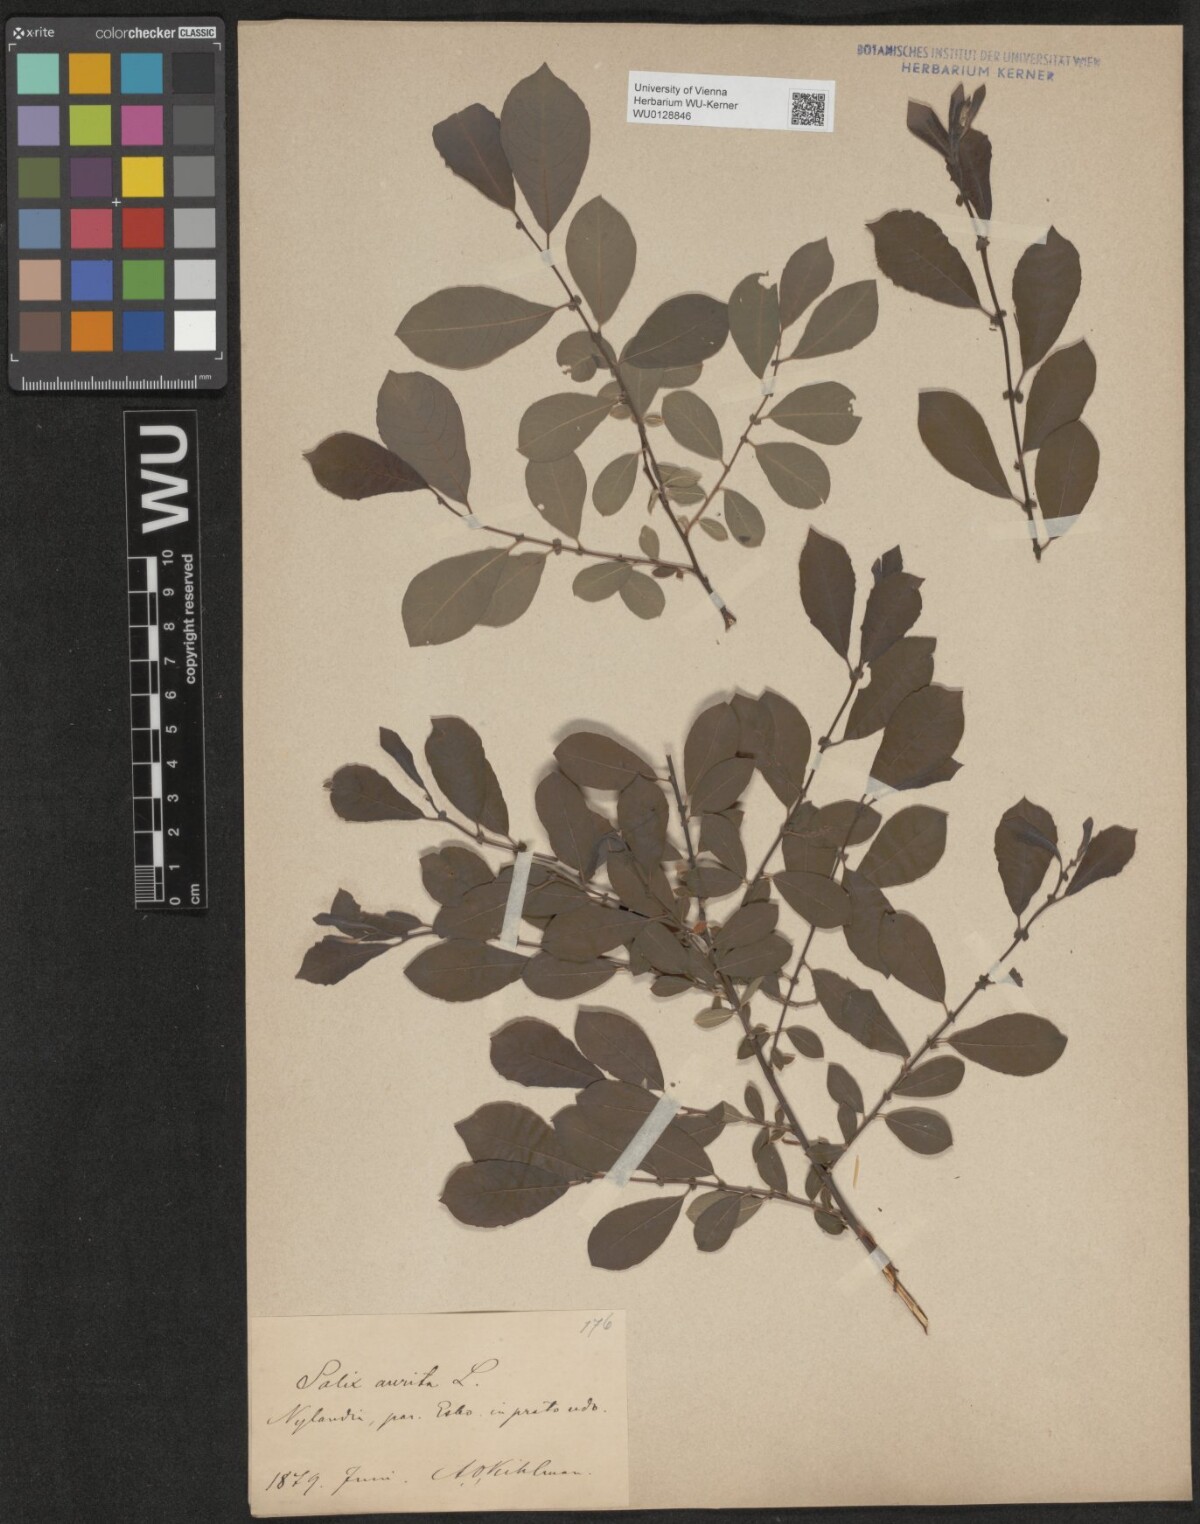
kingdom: Plantae
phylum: Tracheophyta
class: Magnoliopsida
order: Malpighiales
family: Salicaceae
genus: Salix
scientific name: Salix aurita
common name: Eared willow
